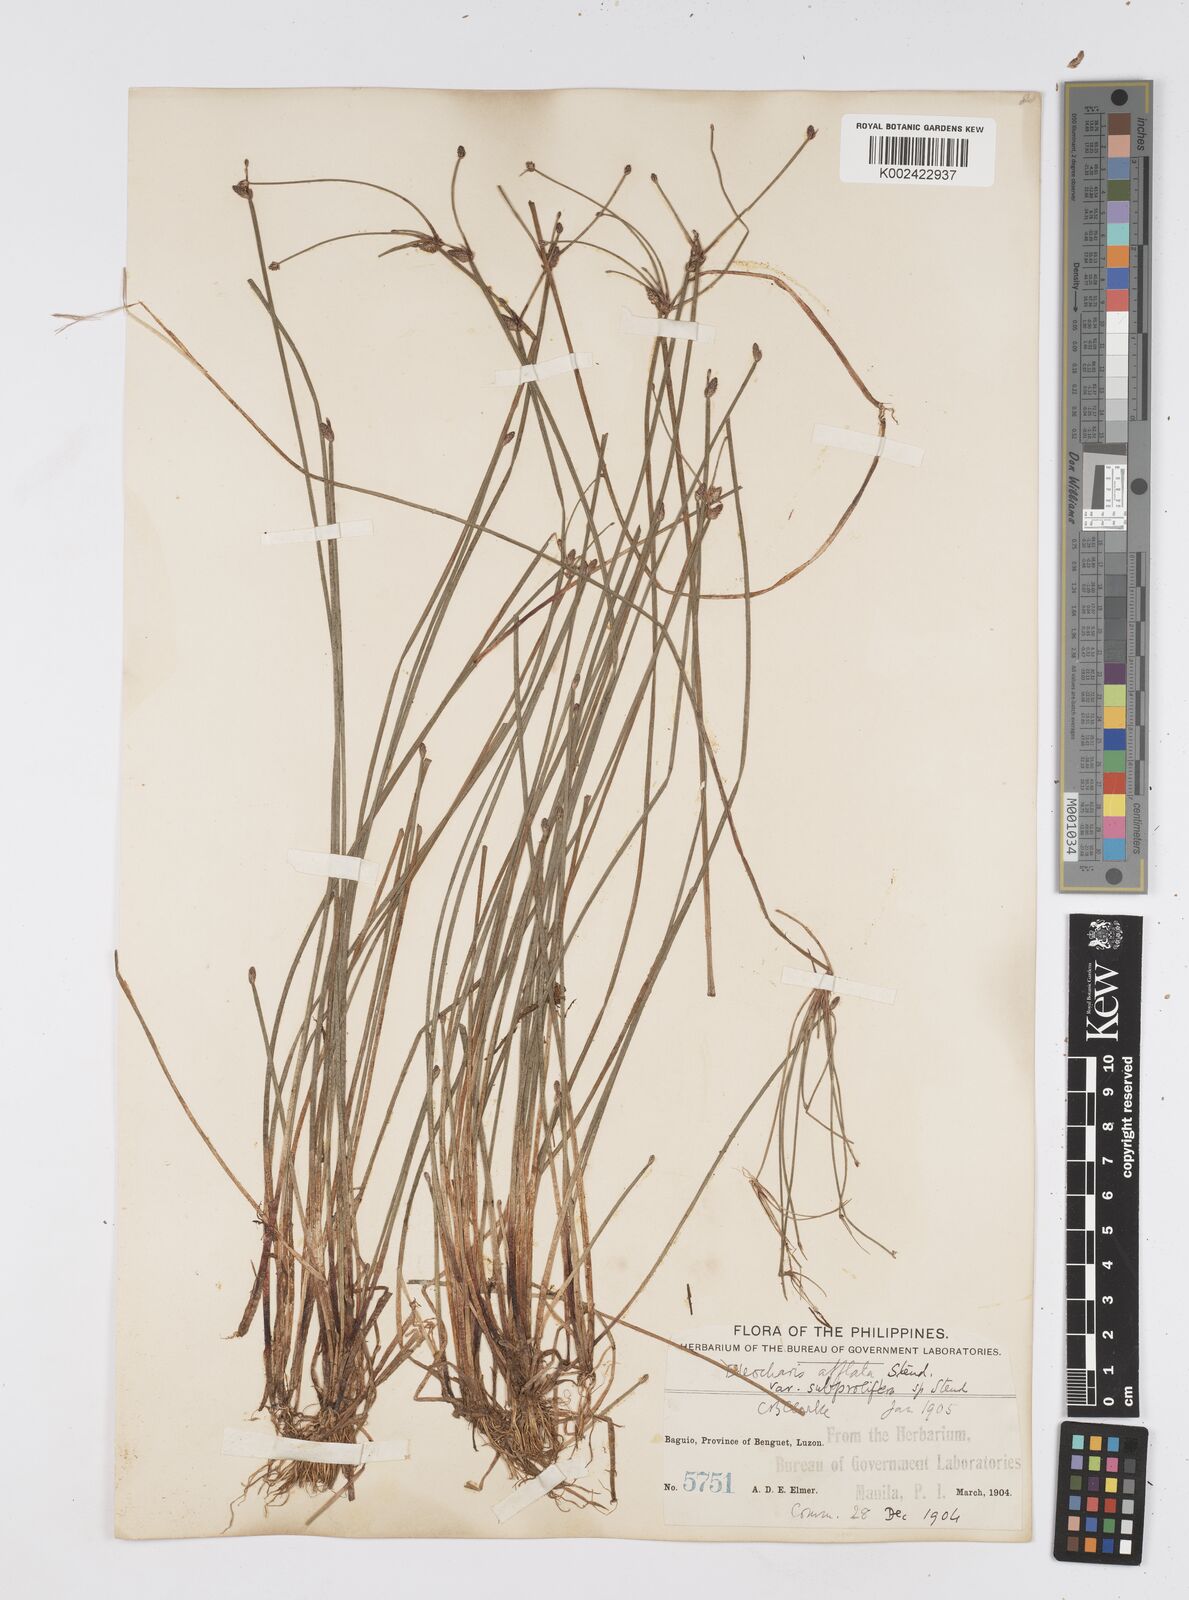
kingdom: Plantae
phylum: Tracheophyta
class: Liliopsida
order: Poales
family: Cyperaceae
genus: Eleocharis
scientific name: Eleocharis congesta
